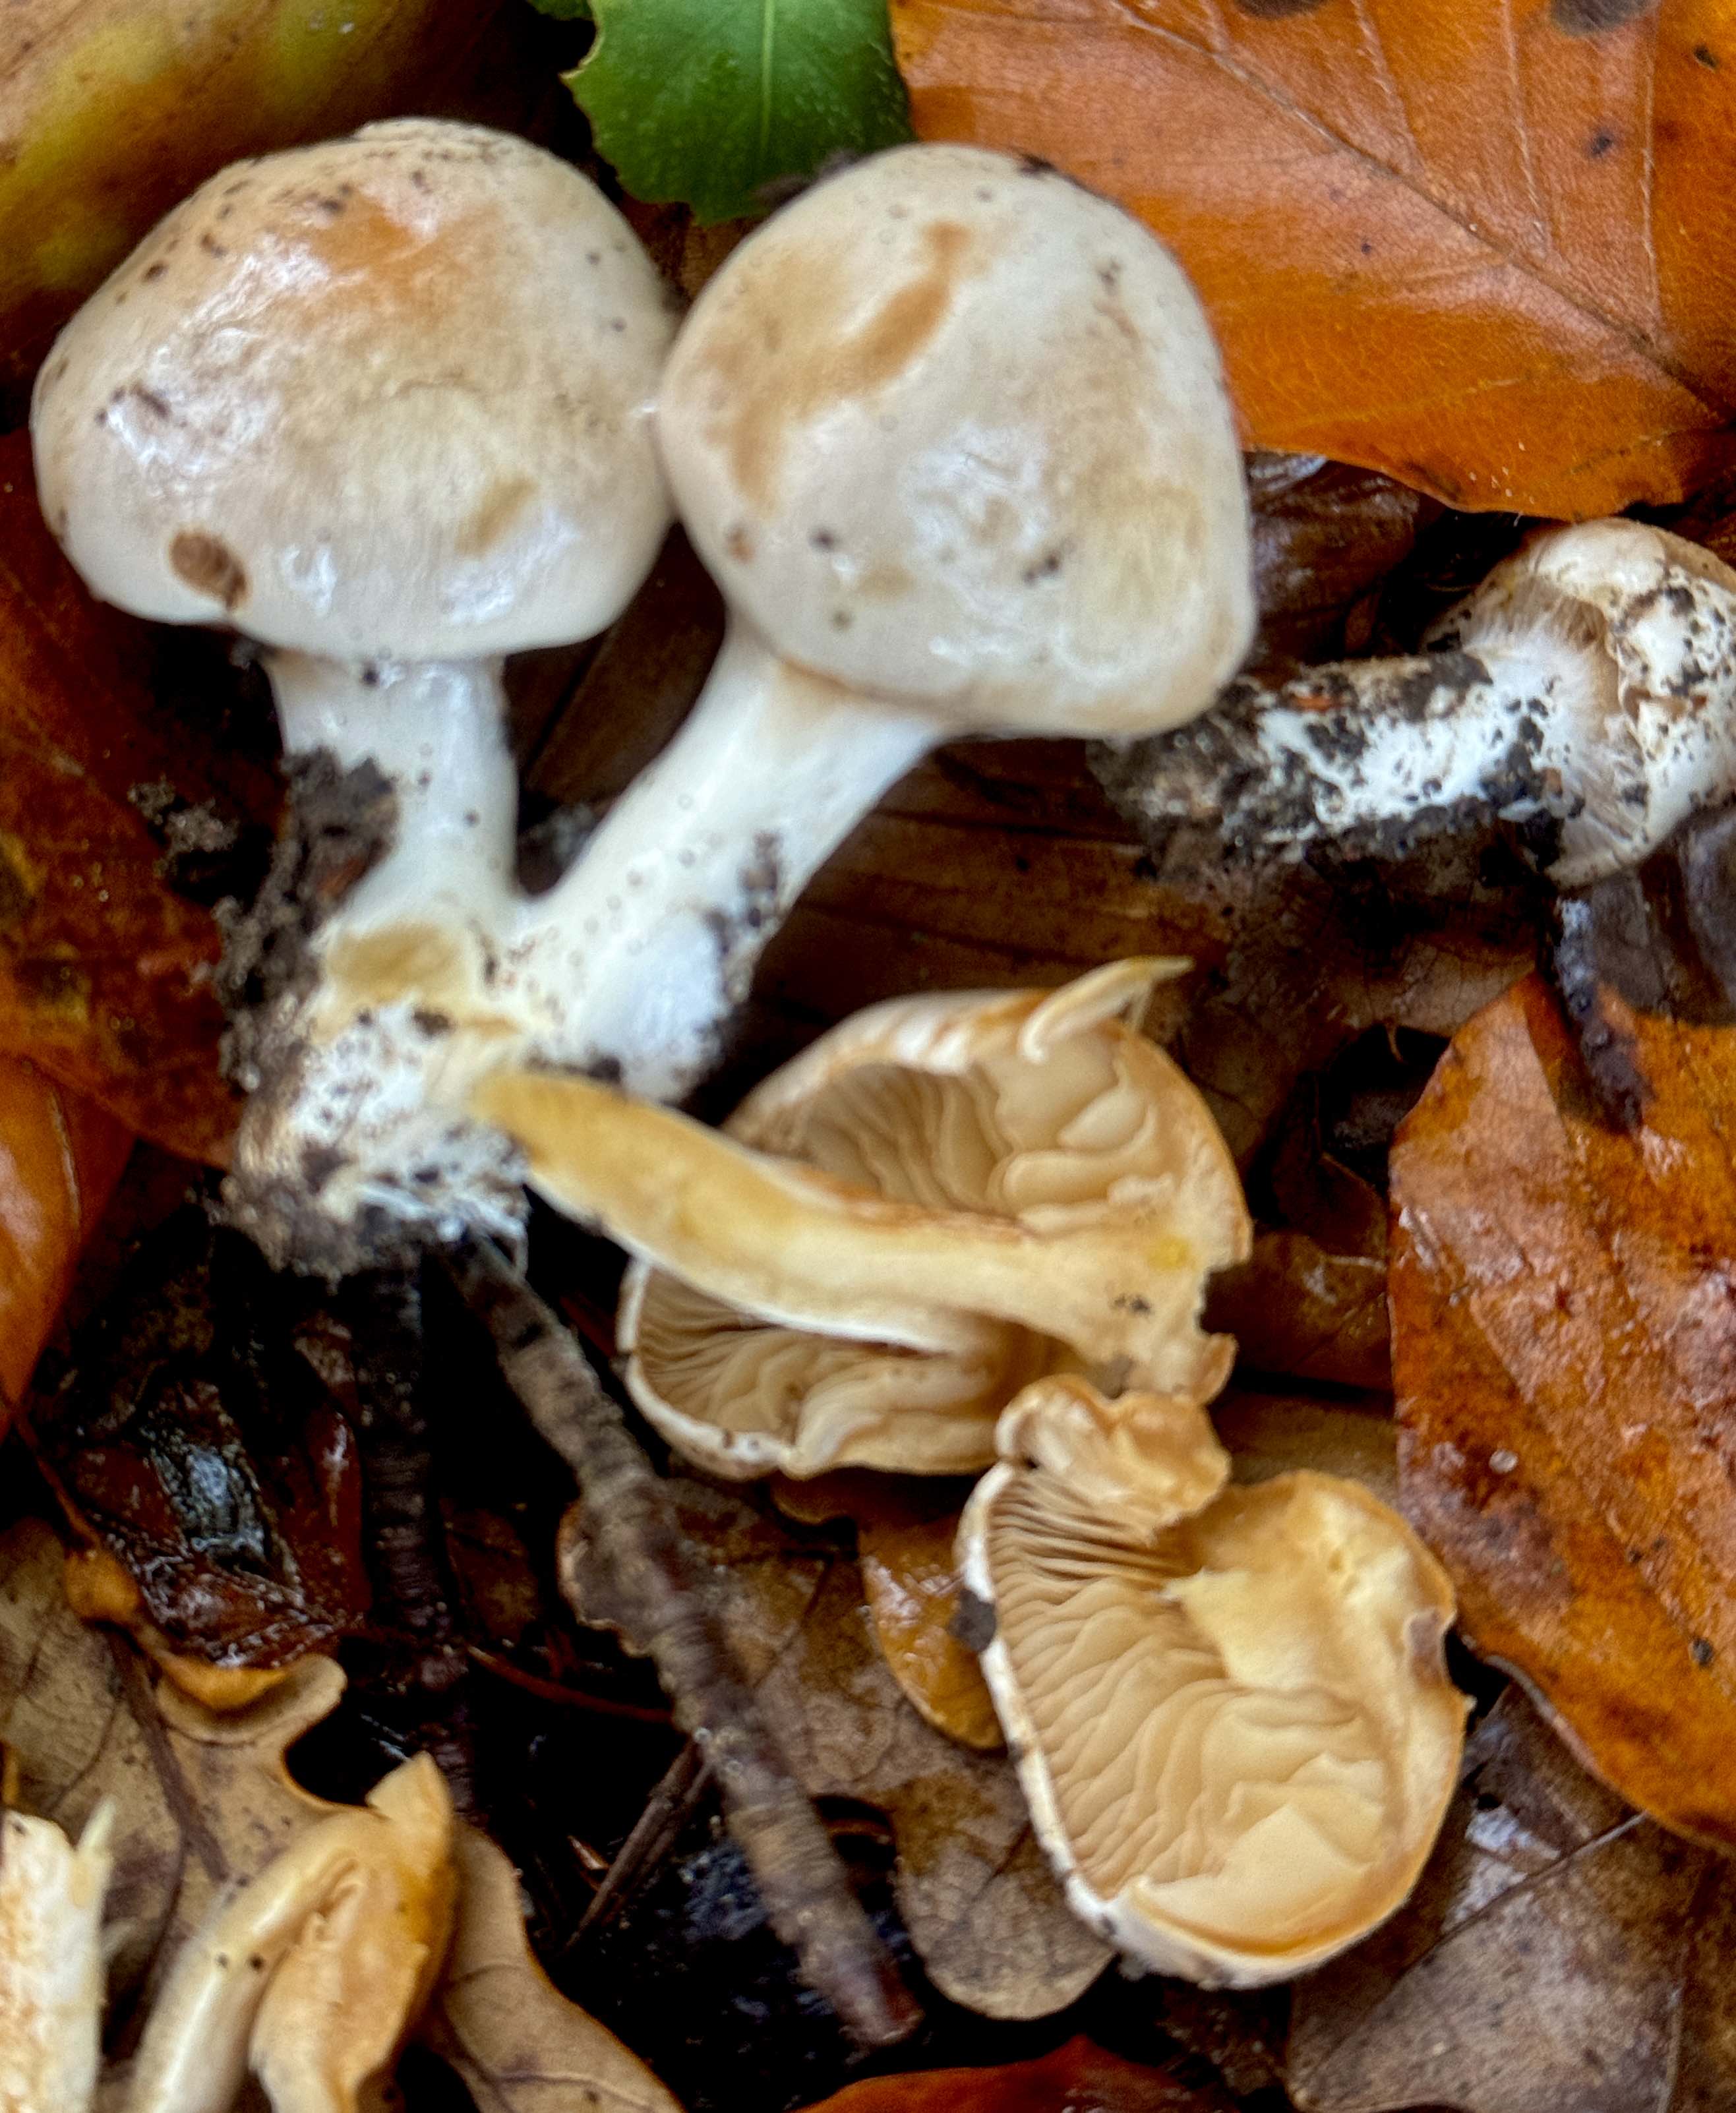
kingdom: Fungi
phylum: Basidiomycota
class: Agaricomycetes
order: Agaricales
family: Cortinariaceae
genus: Thaxterogaster
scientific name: Thaxterogaster leucoluteolus
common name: isabella slørhat
